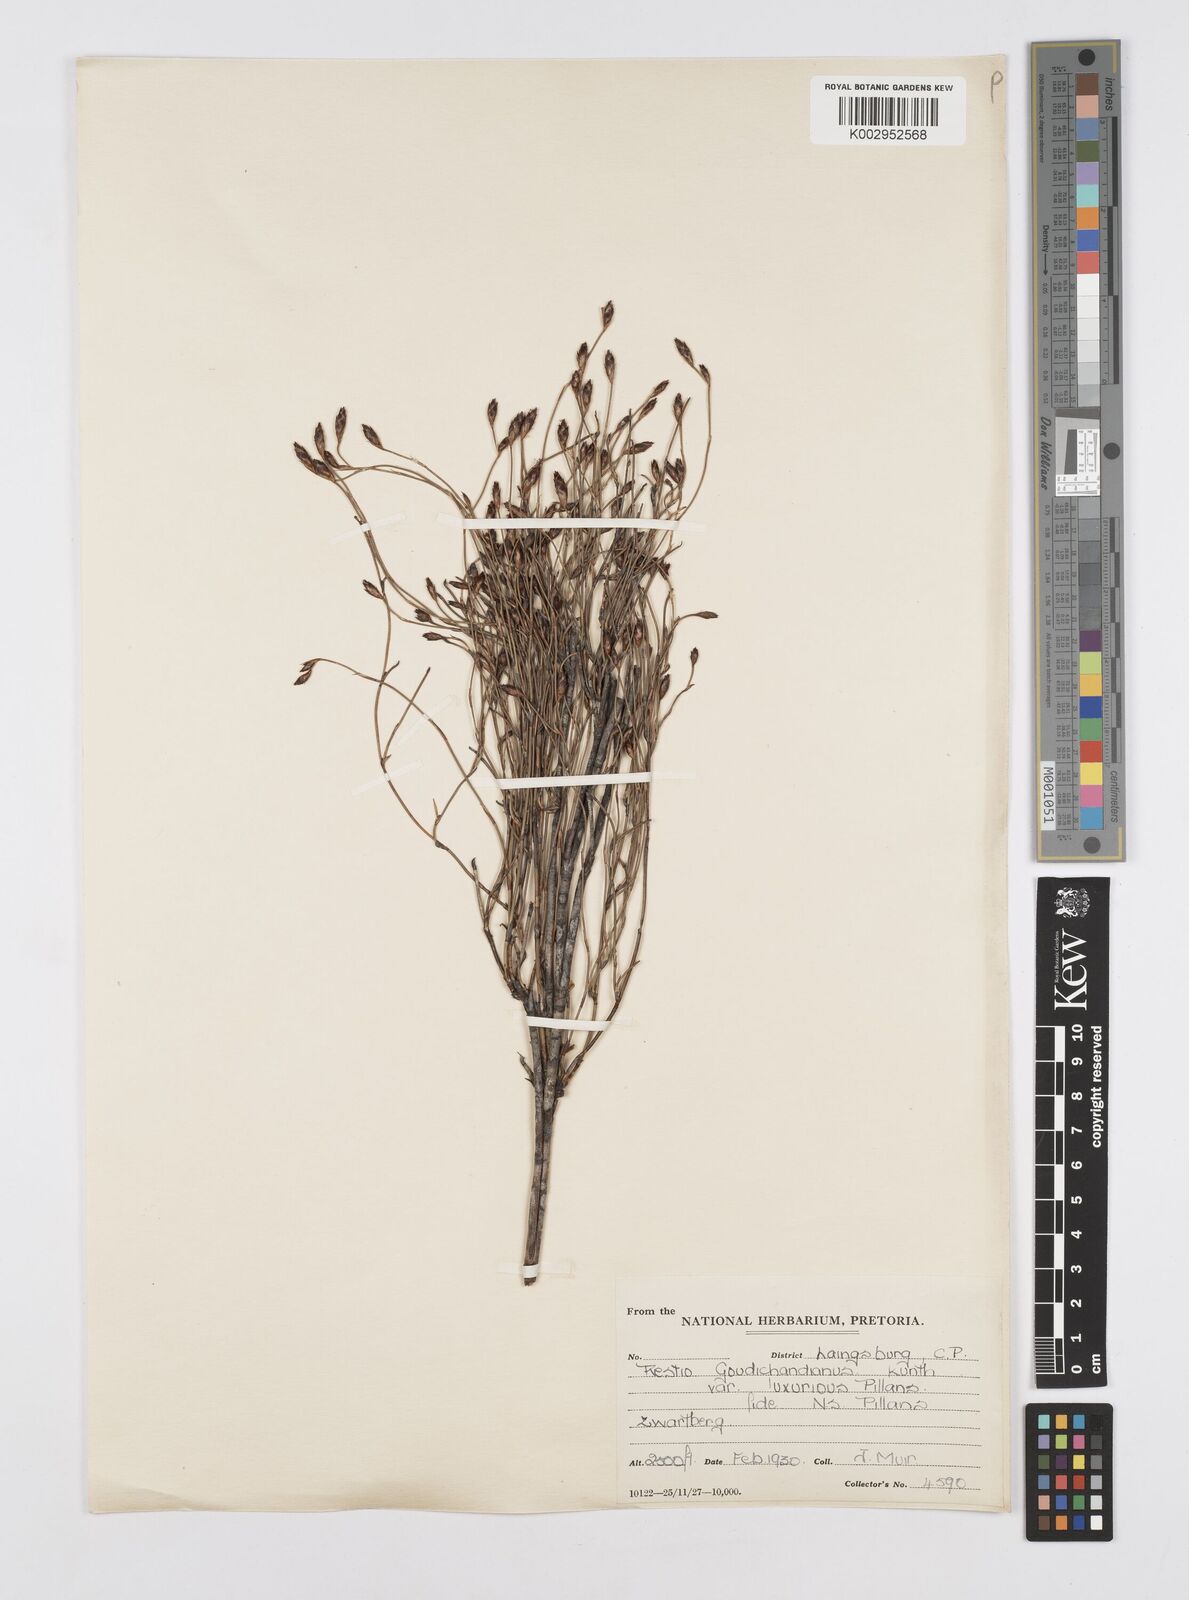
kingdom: Plantae
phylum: Tracheophyta
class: Liliopsida
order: Poales
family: Restionaceae
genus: Restio
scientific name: Restio luxurians
